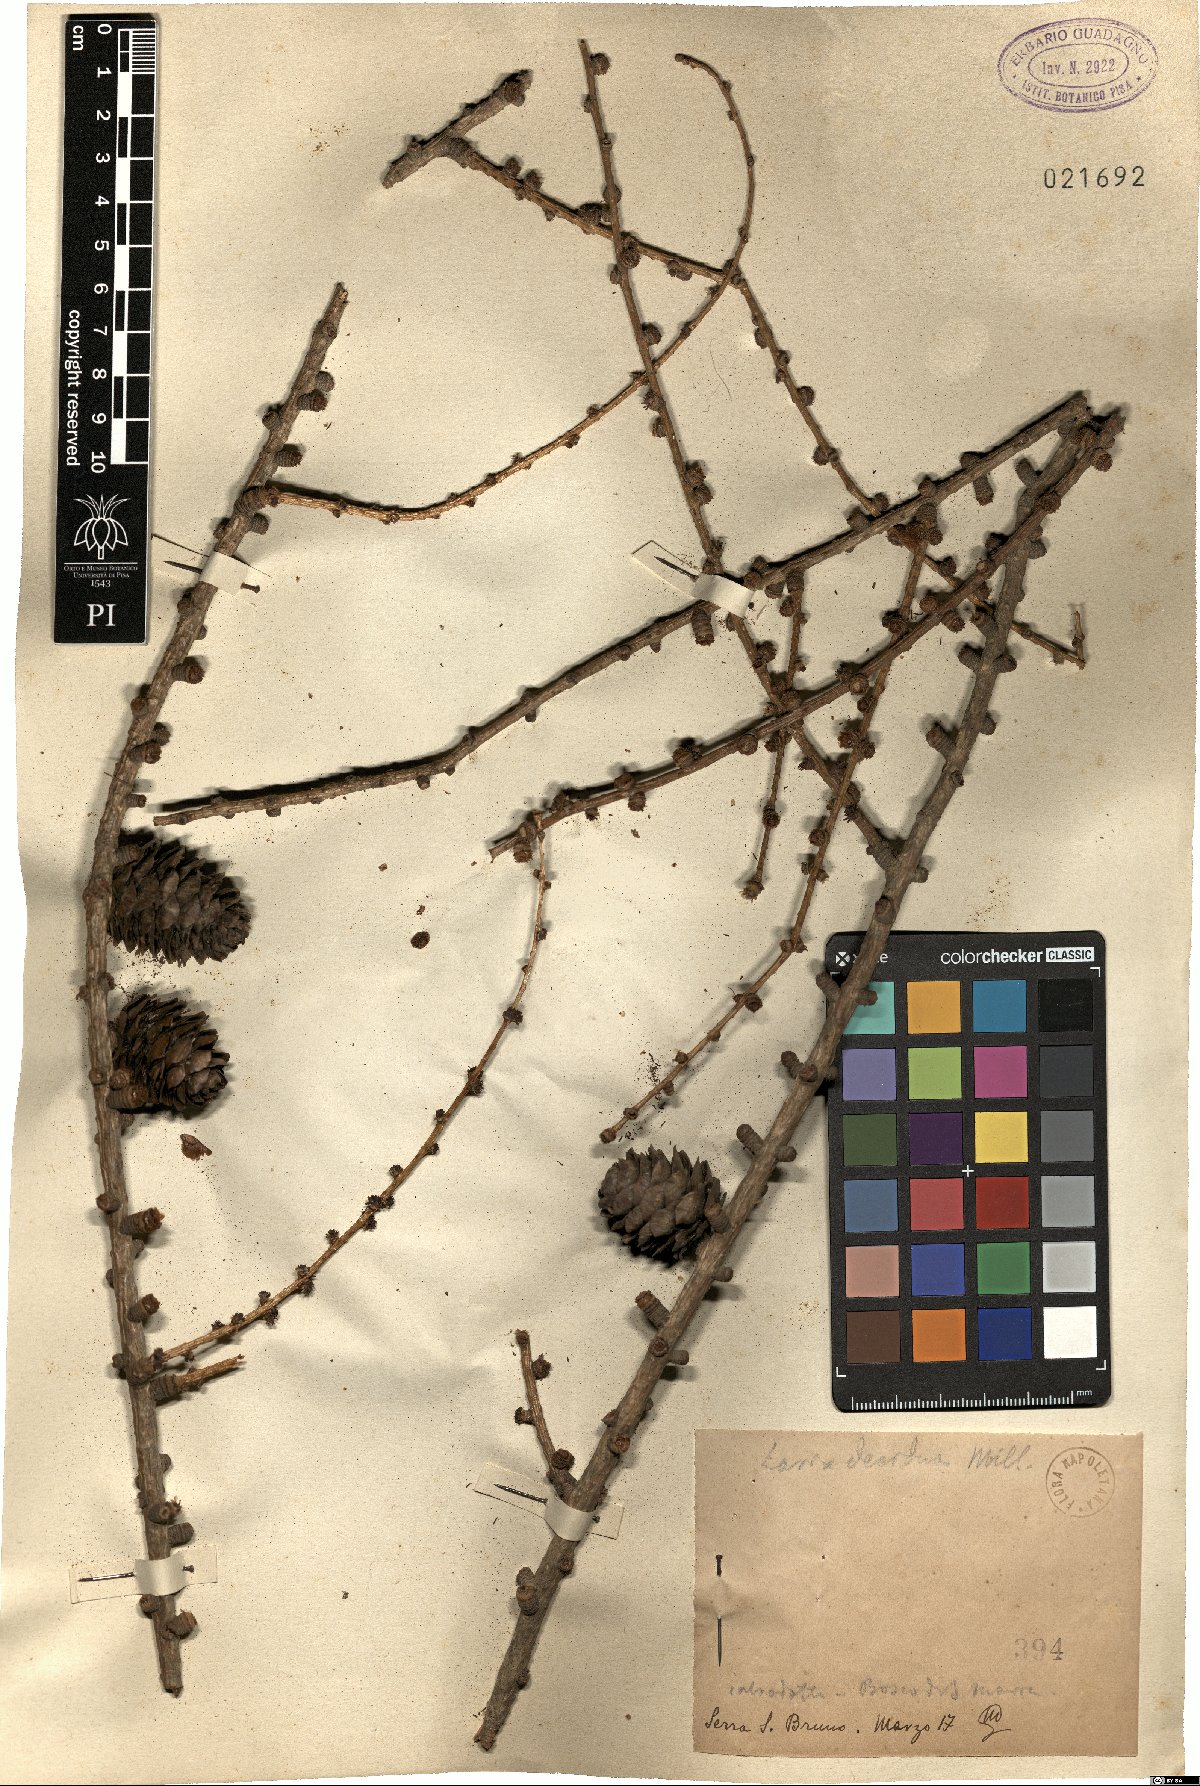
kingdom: Plantae
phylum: Tracheophyta
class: Pinopsida
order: Pinales
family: Pinaceae
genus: Larix
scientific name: Larix decidua
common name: European larch
